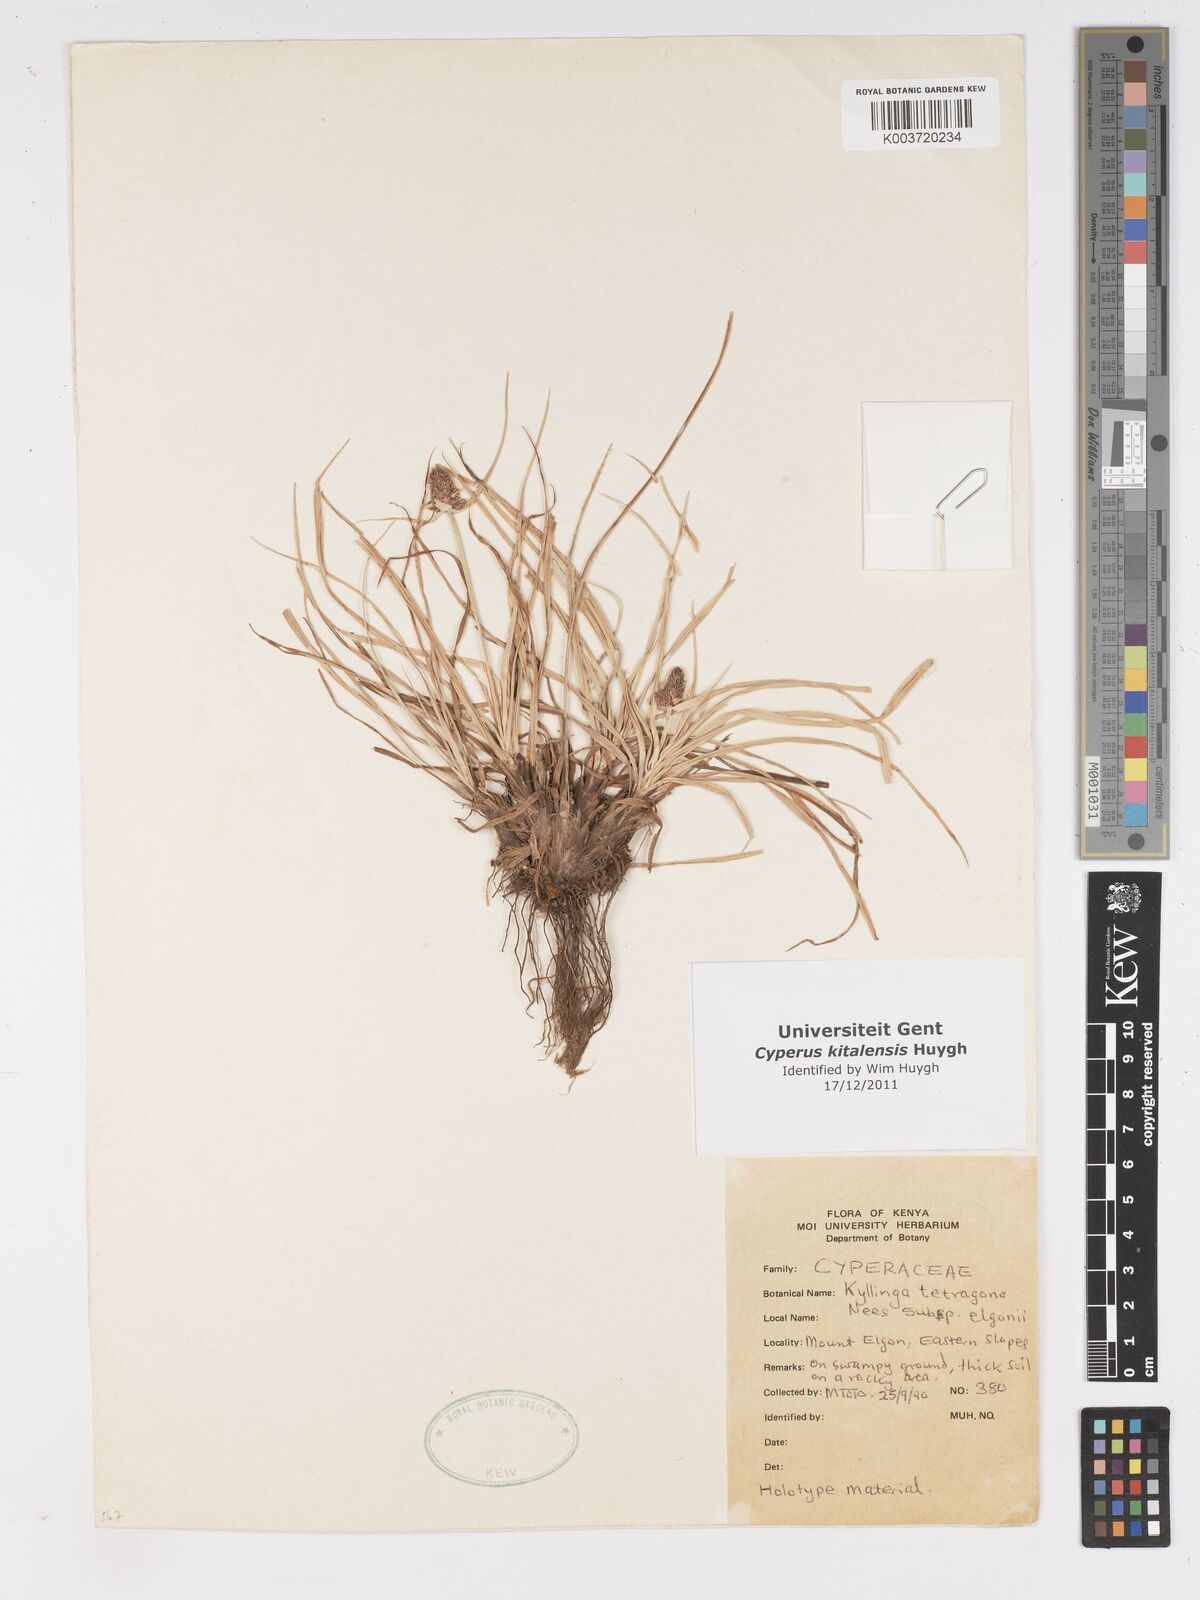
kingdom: Plantae
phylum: Tracheophyta
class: Liliopsida
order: Poales
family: Cyperaceae
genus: Cyperus
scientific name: Cyperus
